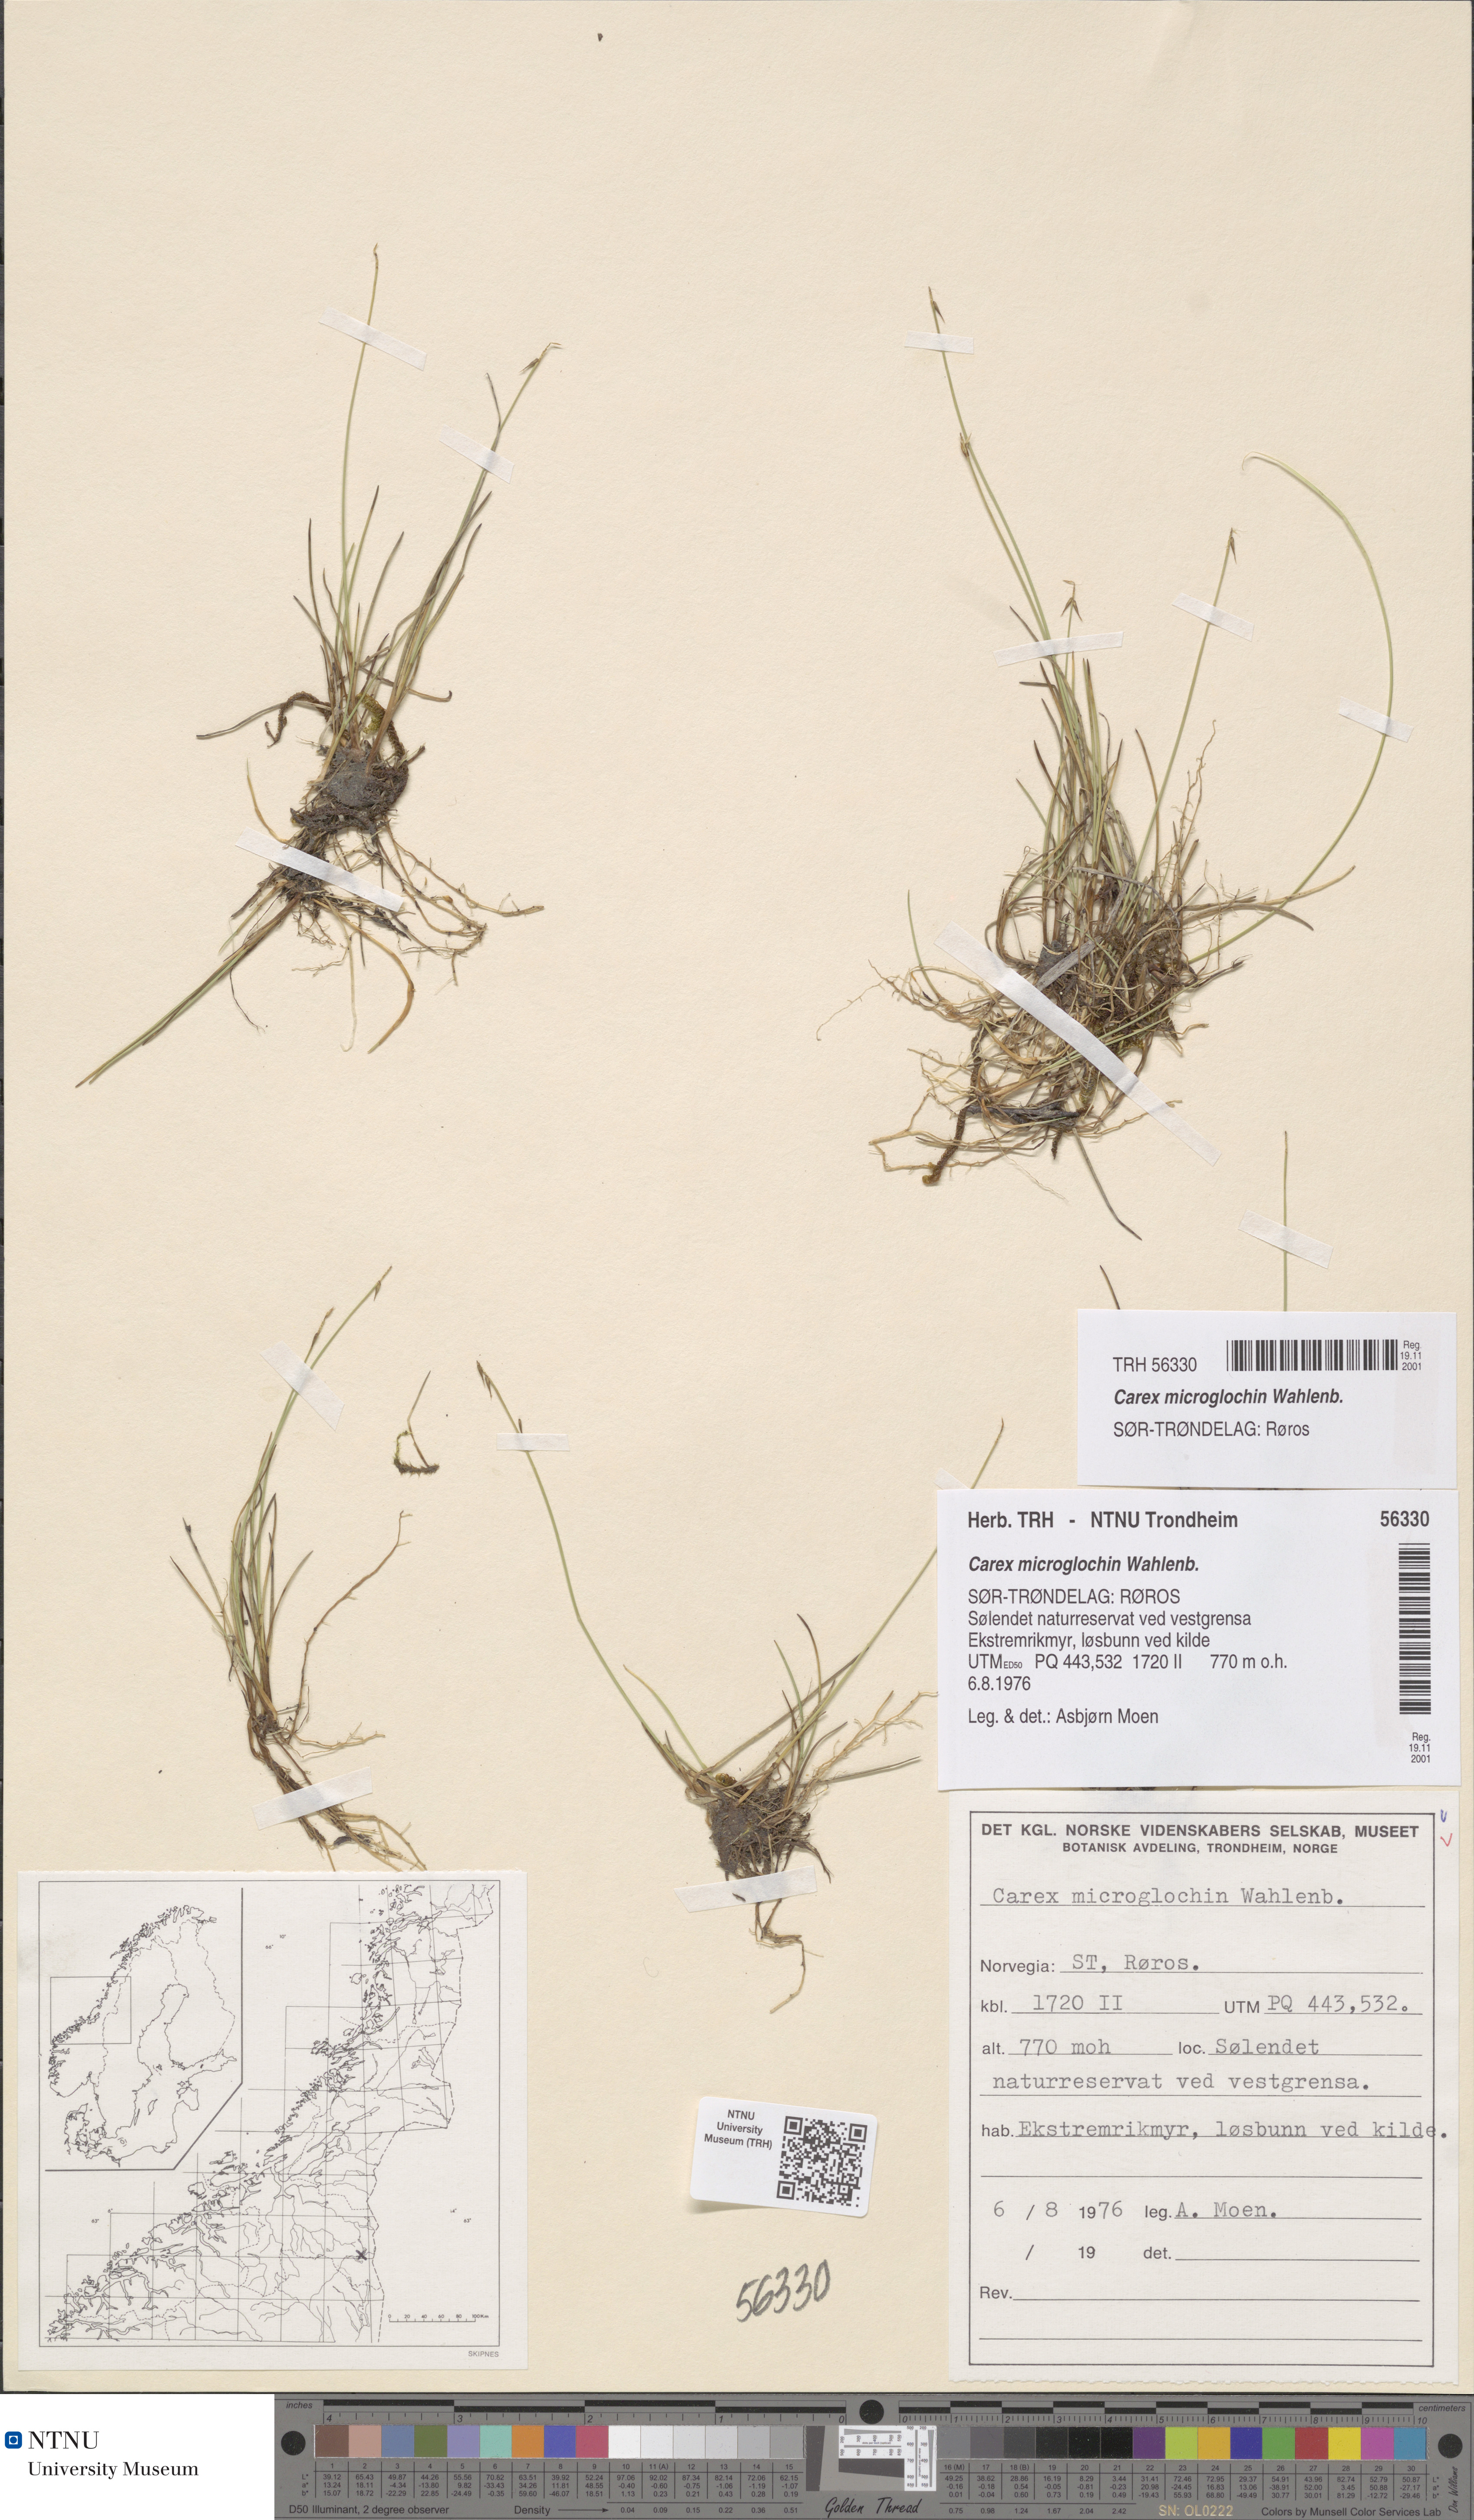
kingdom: Plantae
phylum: Tracheophyta
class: Liliopsida
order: Poales
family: Cyperaceae
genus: Carex
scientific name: Carex microglochin
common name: Bristle sedge
